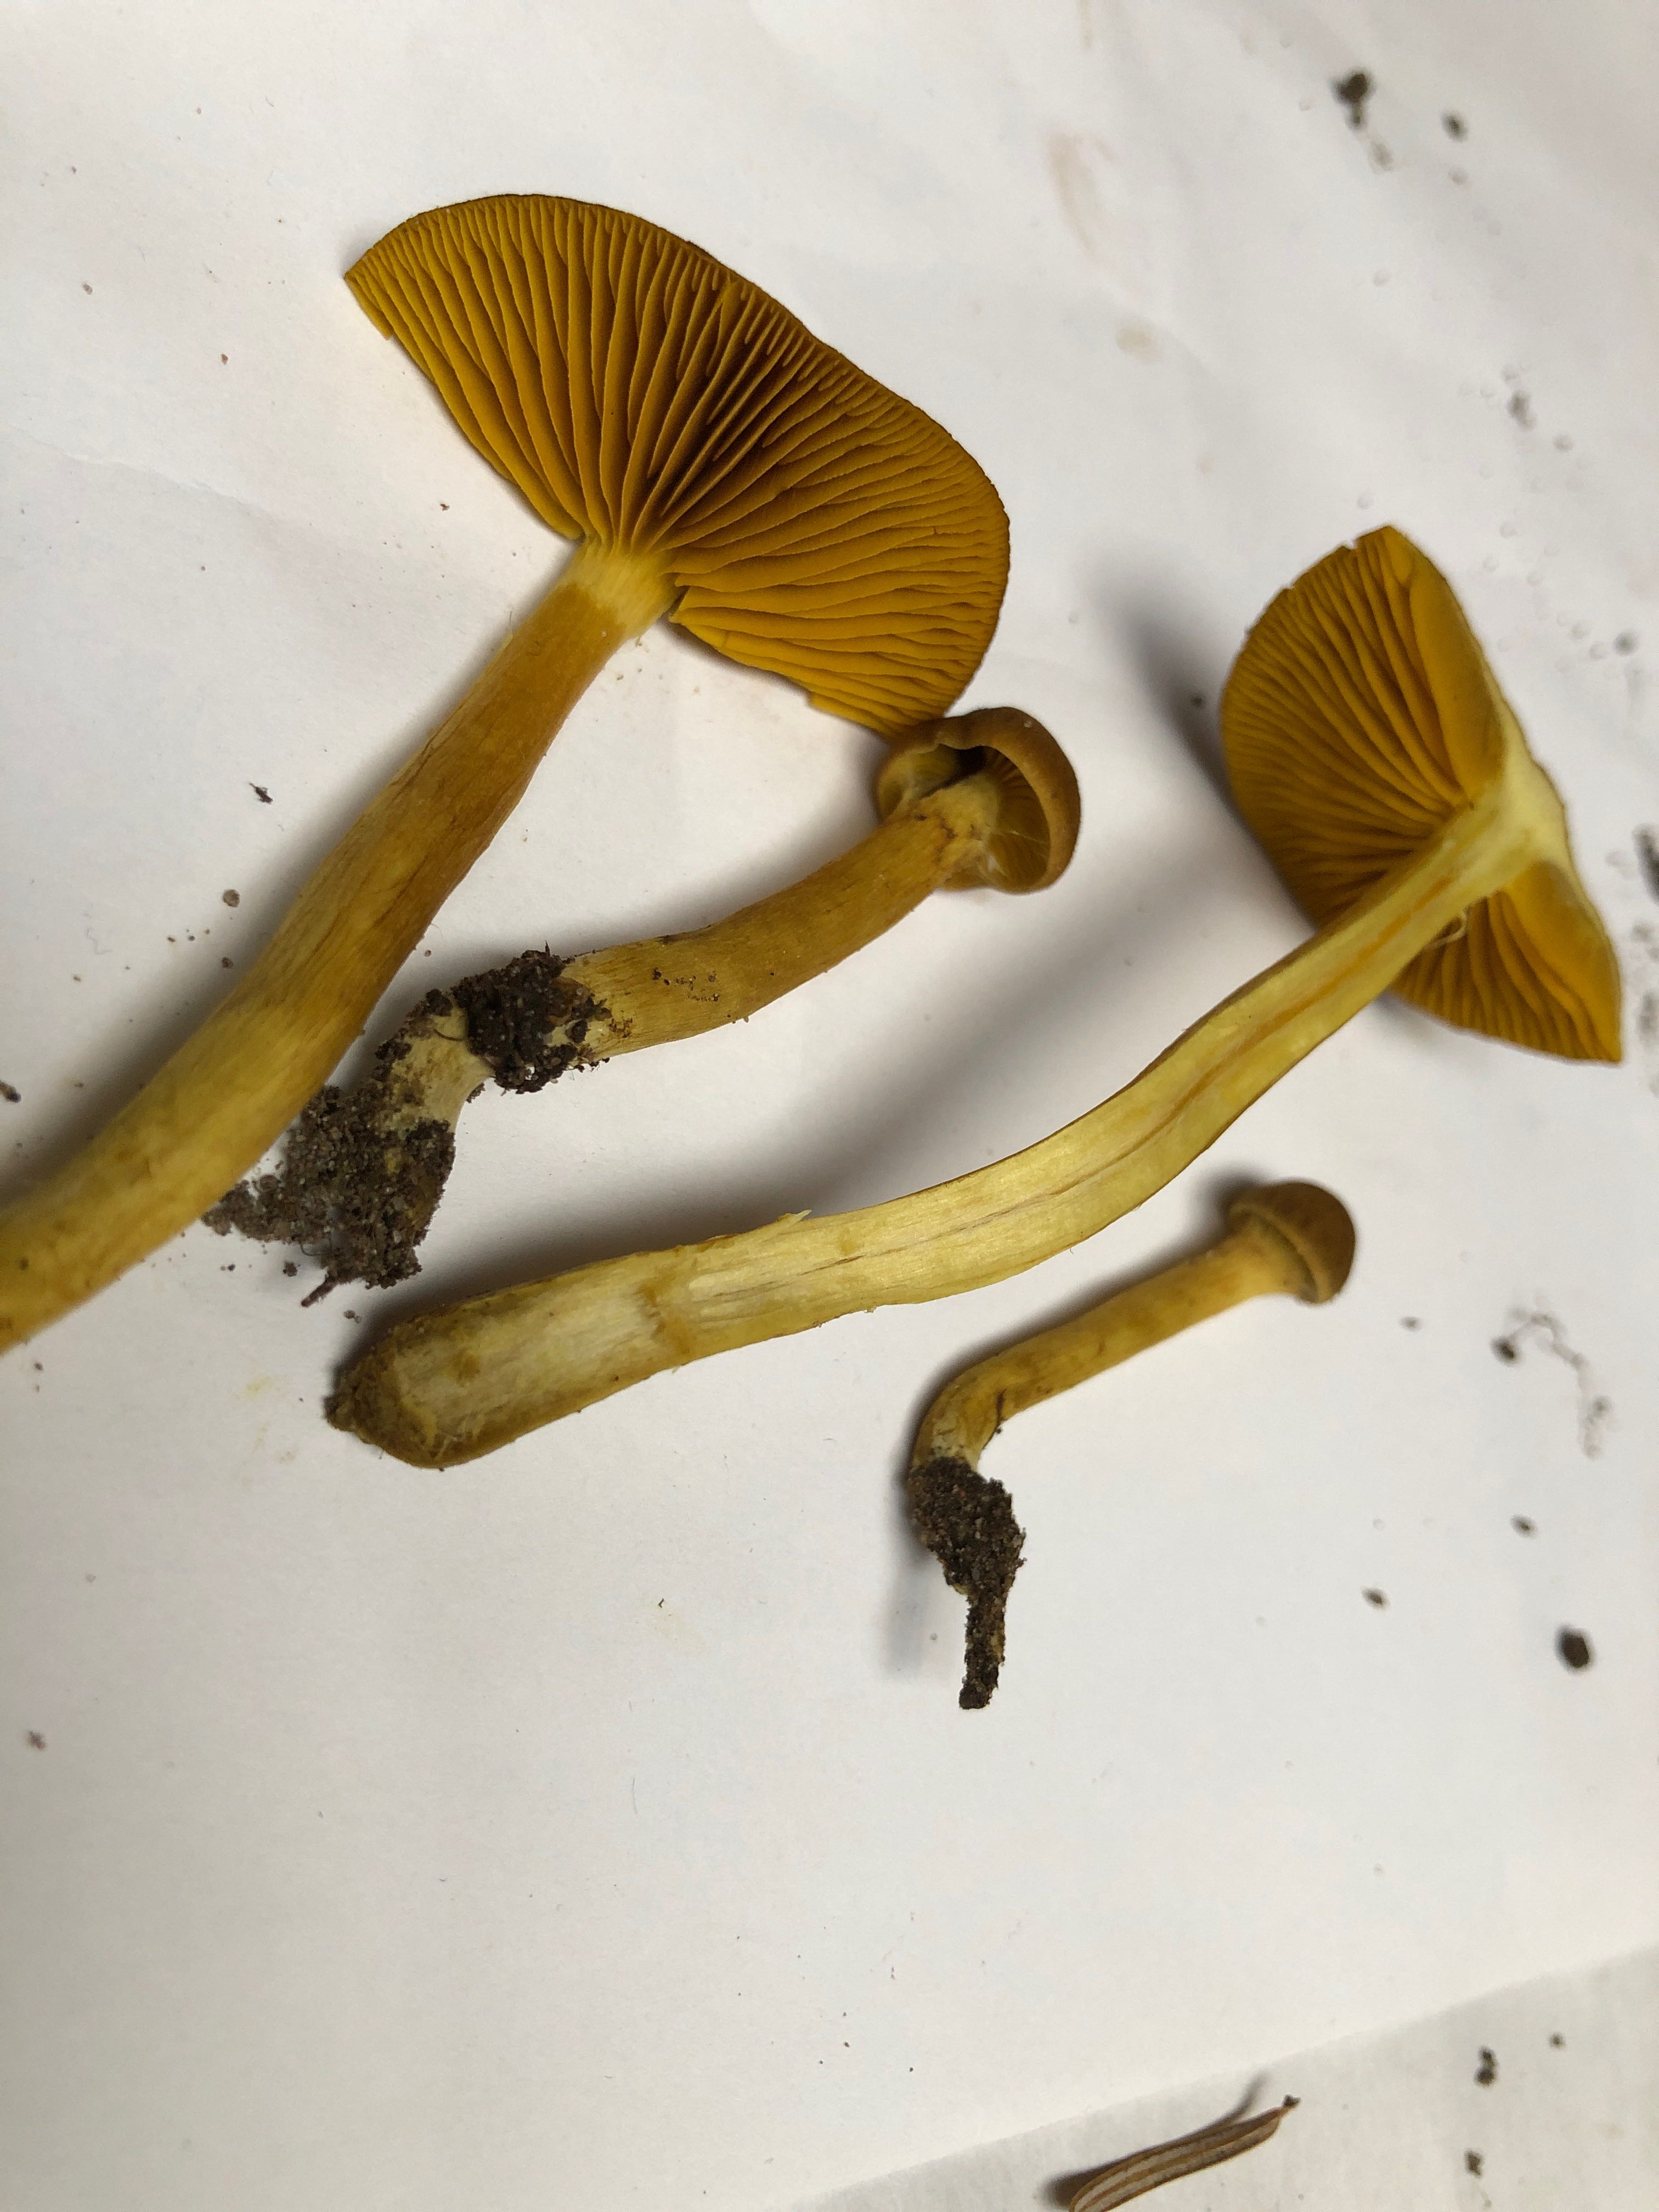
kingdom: Fungi
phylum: Basidiomycota
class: Agaricomycetes
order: Agaricales
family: Cortinariaceae
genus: Cortinarius
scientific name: Cortinarius
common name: gulbladet slørhat
